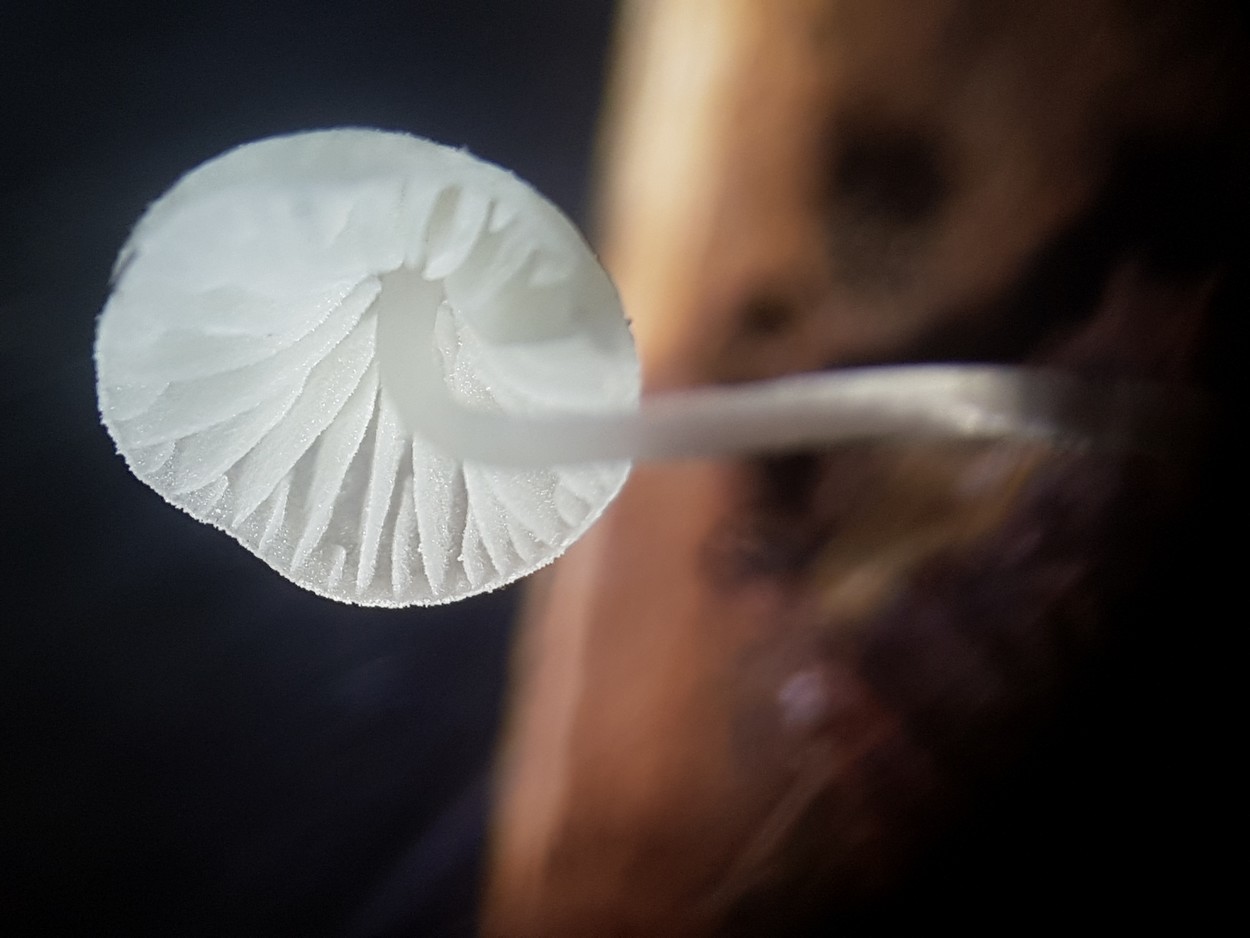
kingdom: Fungi
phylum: Basidiomycota
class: Agaricomycetes
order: Agaricales
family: Mycenaceae
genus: Mycena
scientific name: Mycena tenerrima
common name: pudret huesvamp
